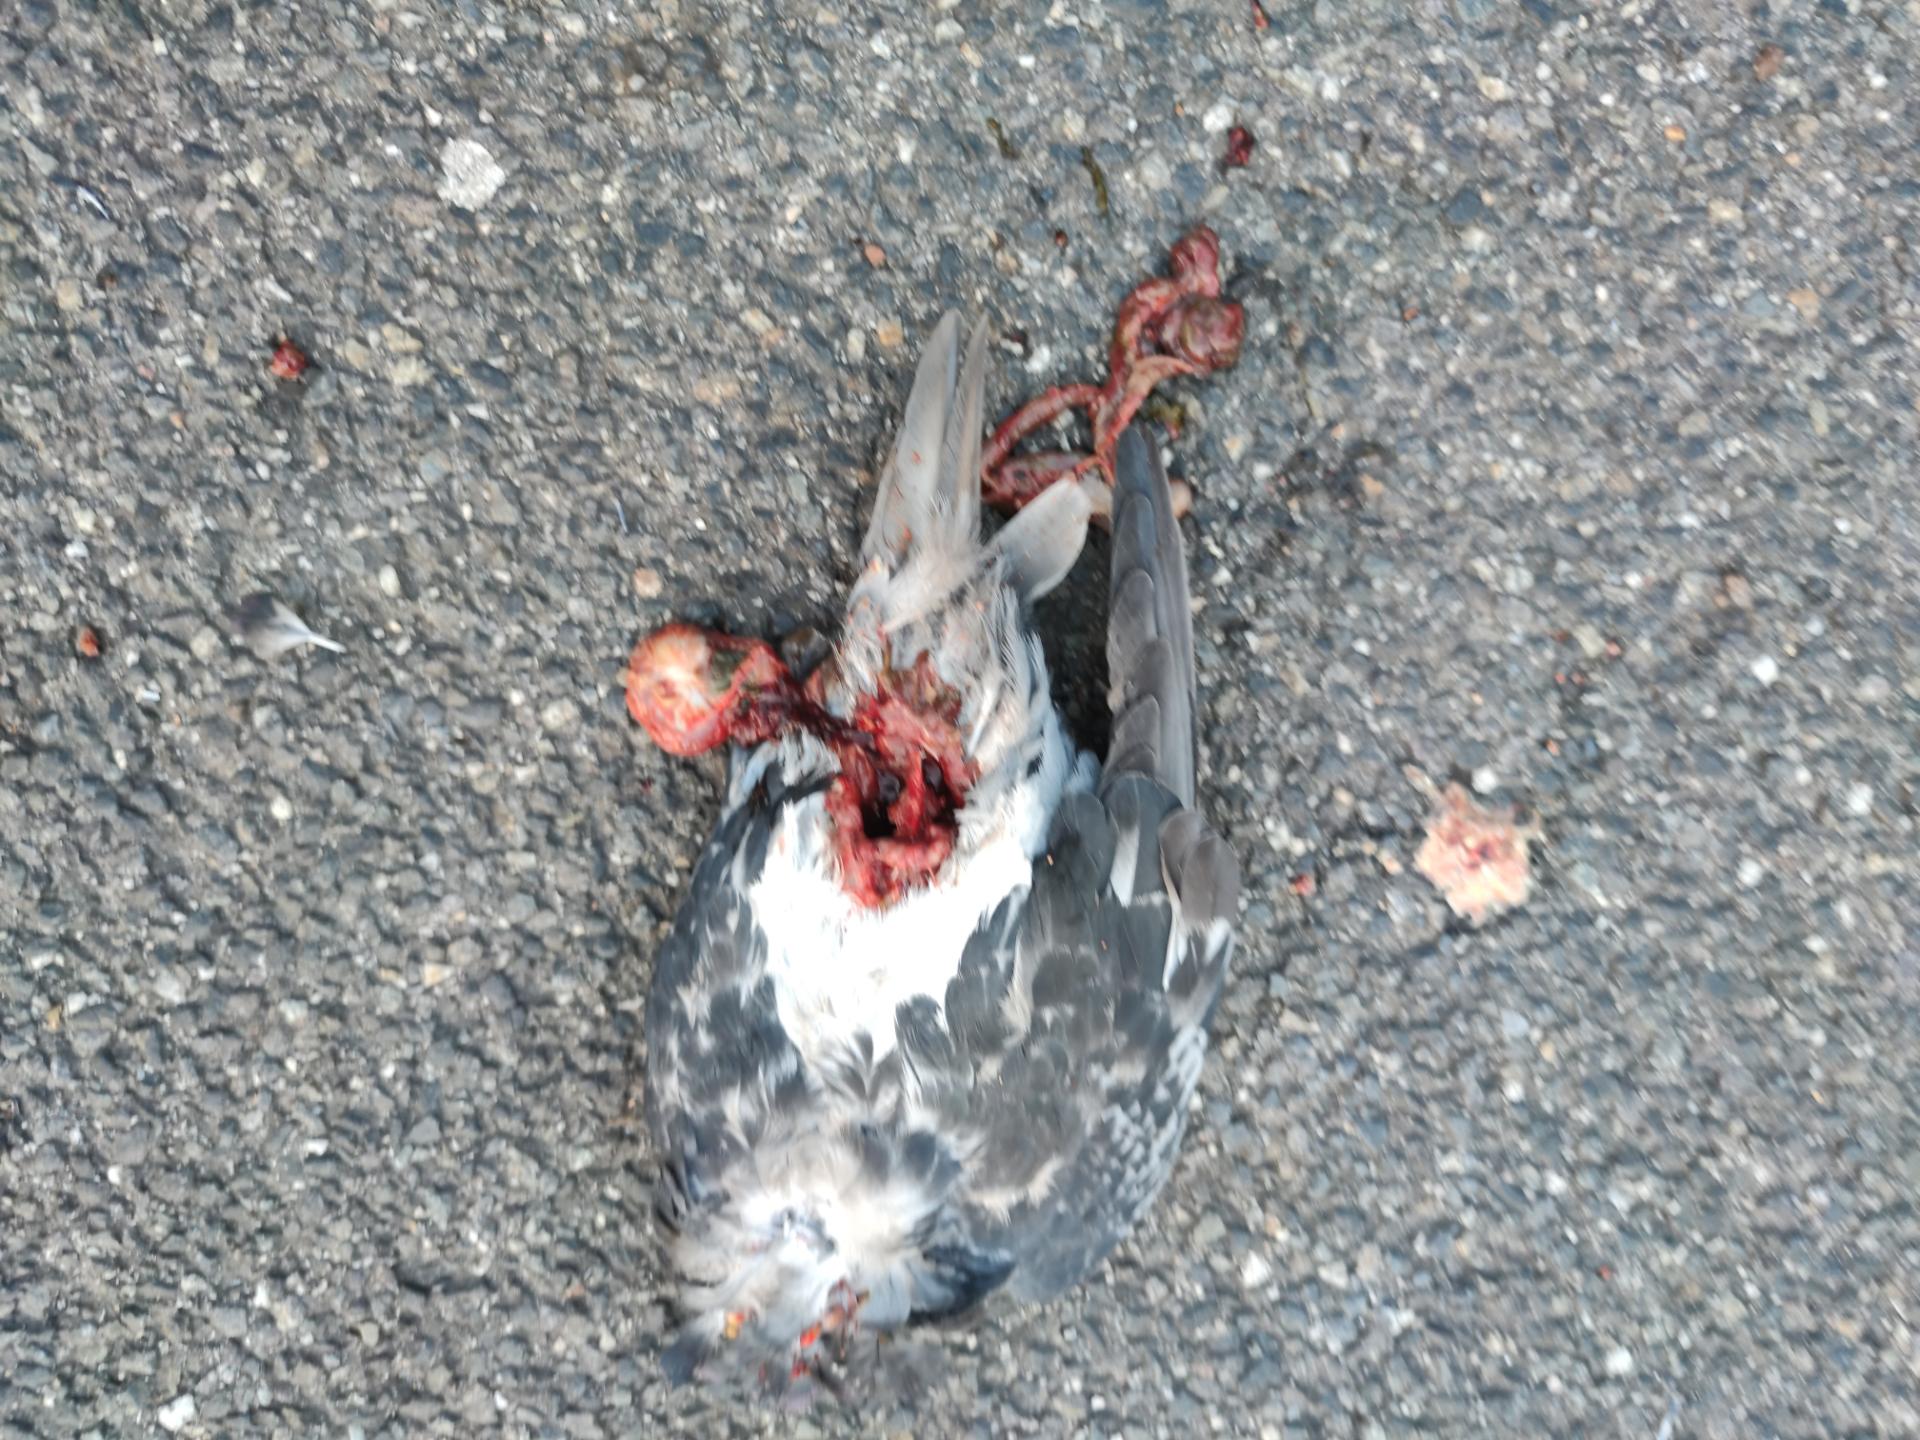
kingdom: Animalia
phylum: Chordata
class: Aves
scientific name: Aves
